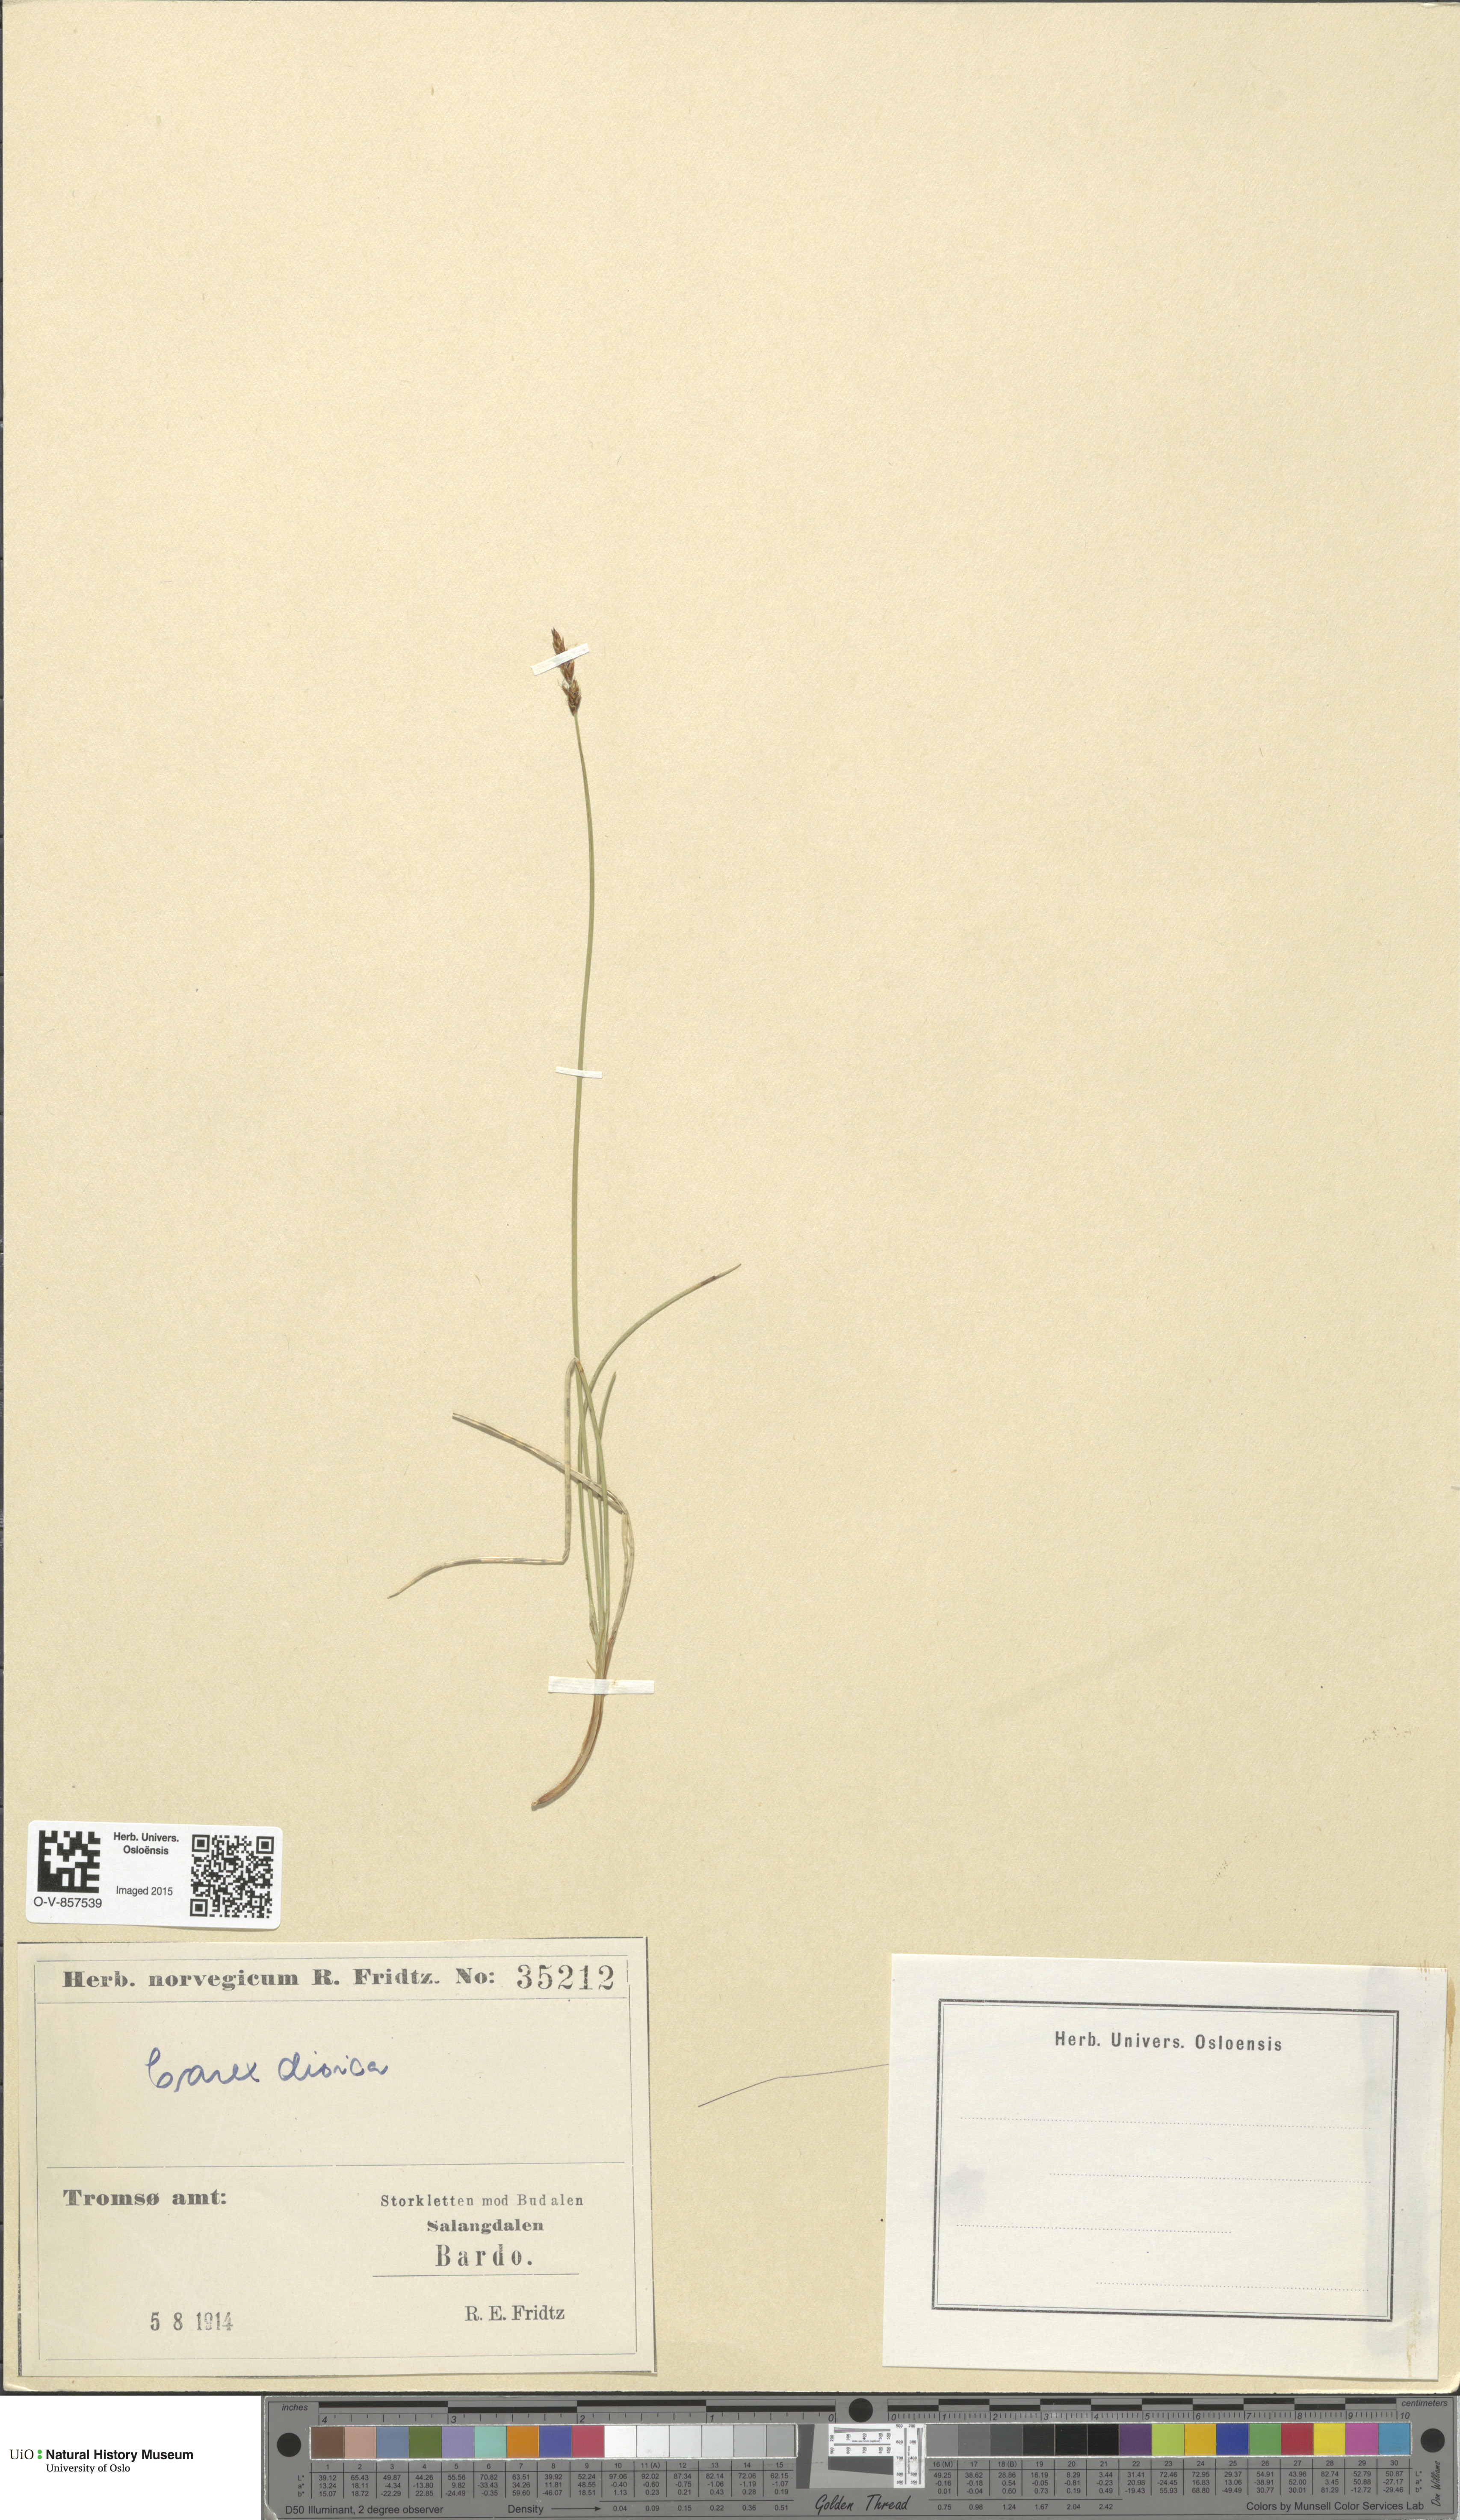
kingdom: Plantae
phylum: Tracheophyta
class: Liliopsida
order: Poales
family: Cyperaceae
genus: Carex
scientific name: Carex dioica
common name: Dioecious sedge
